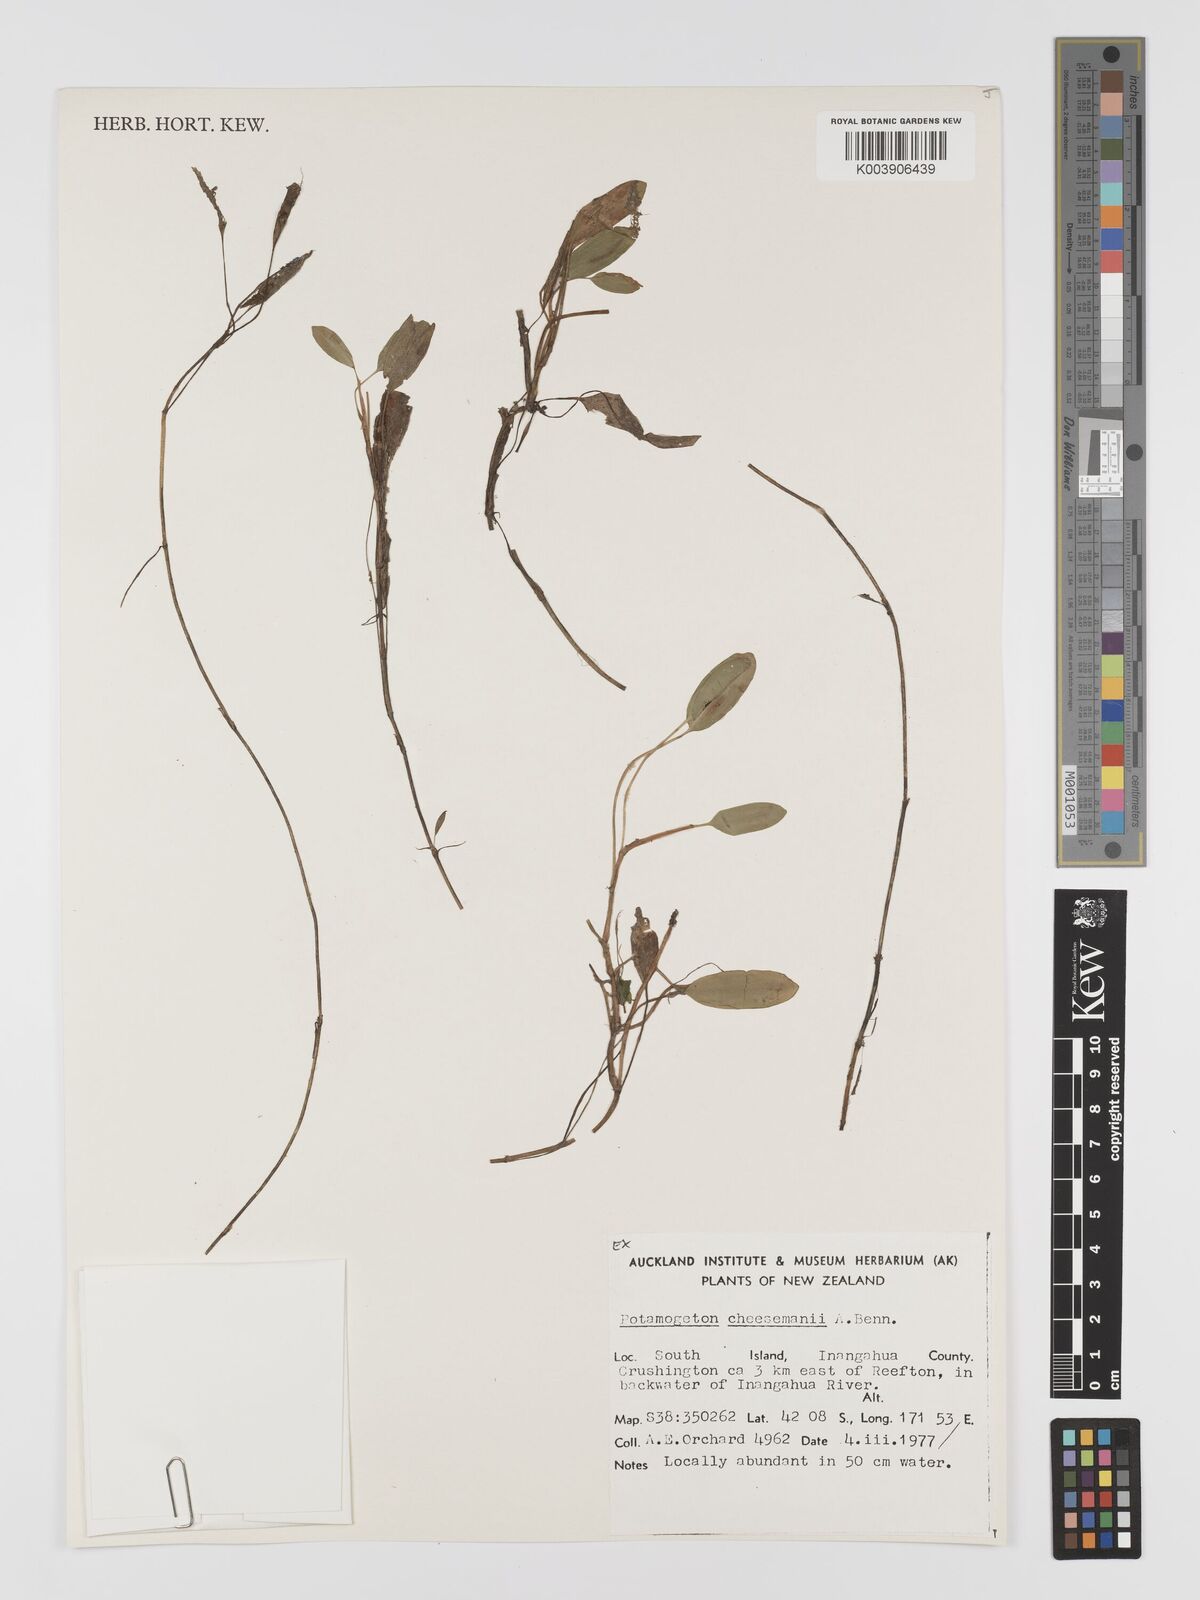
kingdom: Plantae
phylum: Tracheophyta
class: Liliopsida
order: Alismatales
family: Potamogetonaceae
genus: Potamogeton
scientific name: Potamogeton cheesemanii
